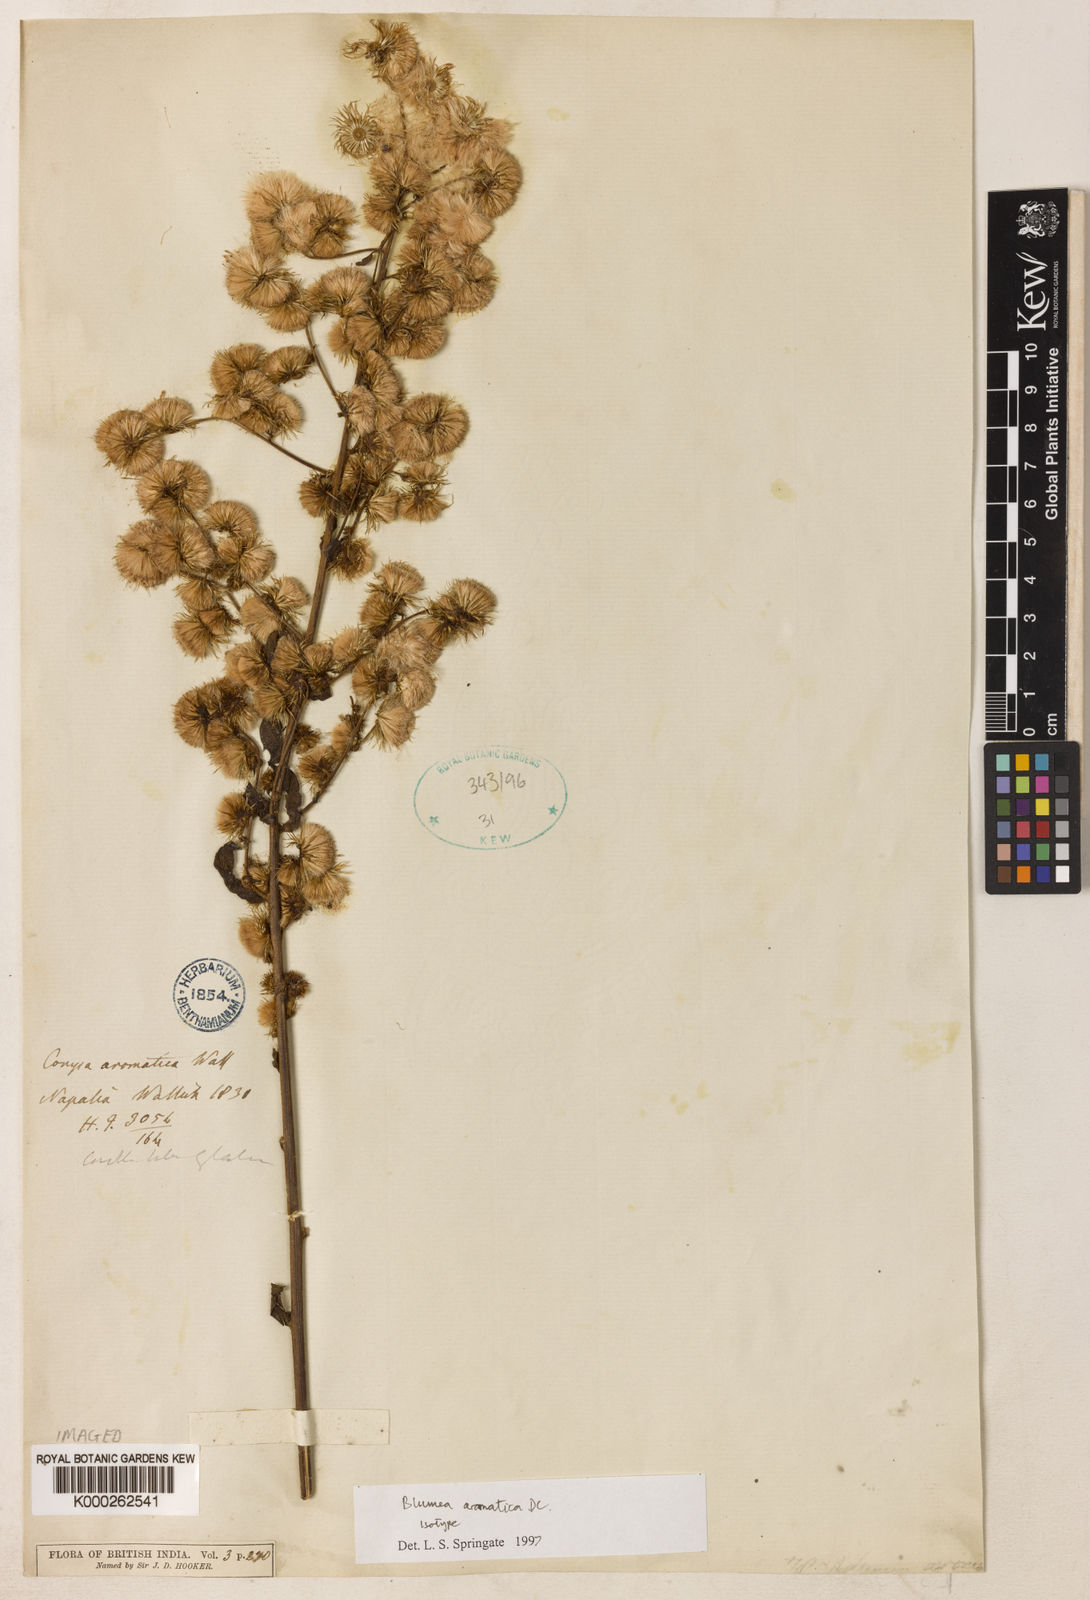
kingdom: Plantae
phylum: Tracheophyta
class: Magnoliopsida
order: Asterales
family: Asteraceae
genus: Blumea
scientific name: Blumea aromatica
